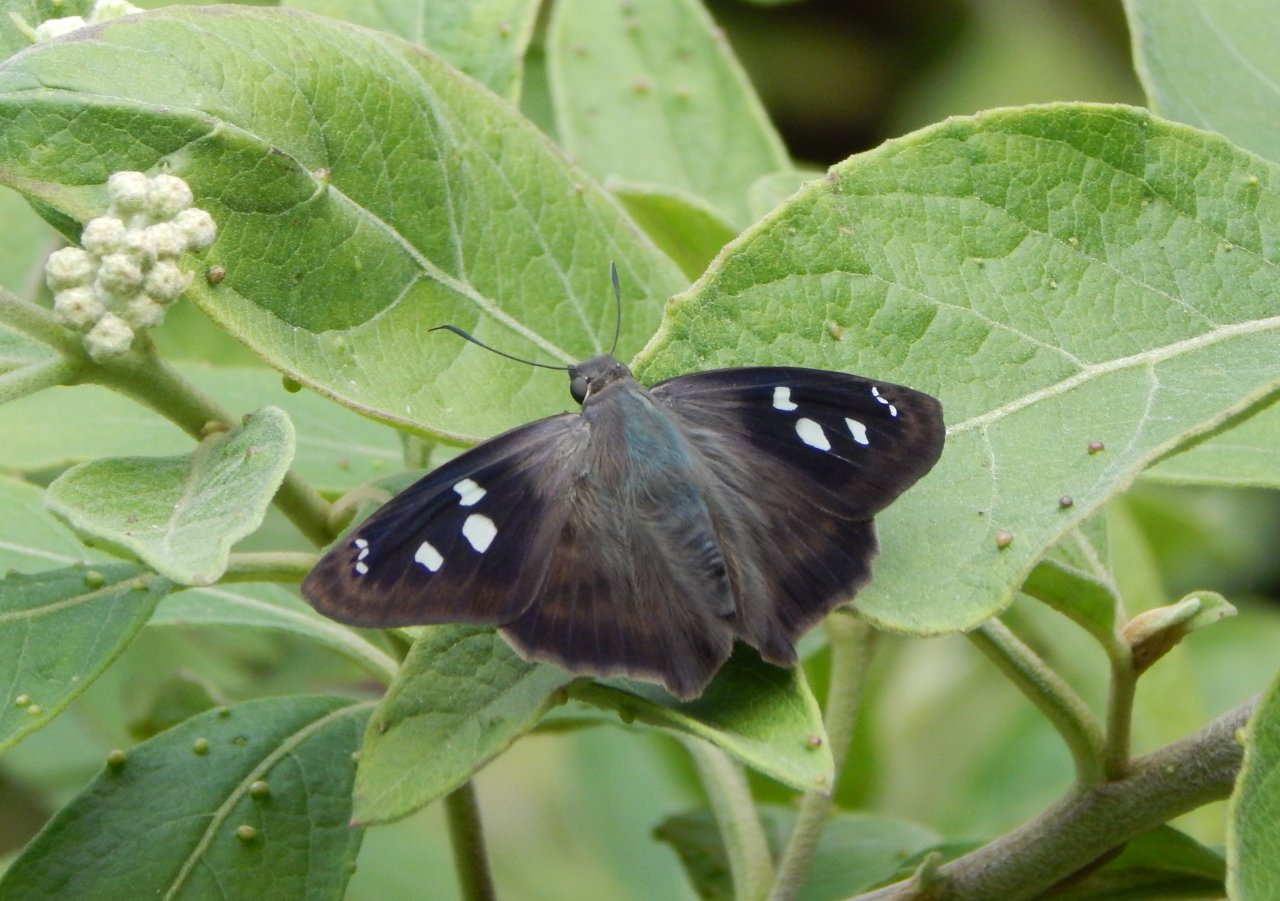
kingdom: Animalia
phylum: Arthropoda
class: Insecta
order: Lepidoptera
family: Hesperiidae
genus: Polygonus
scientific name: Polygonus leo
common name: Hammock Skipper
